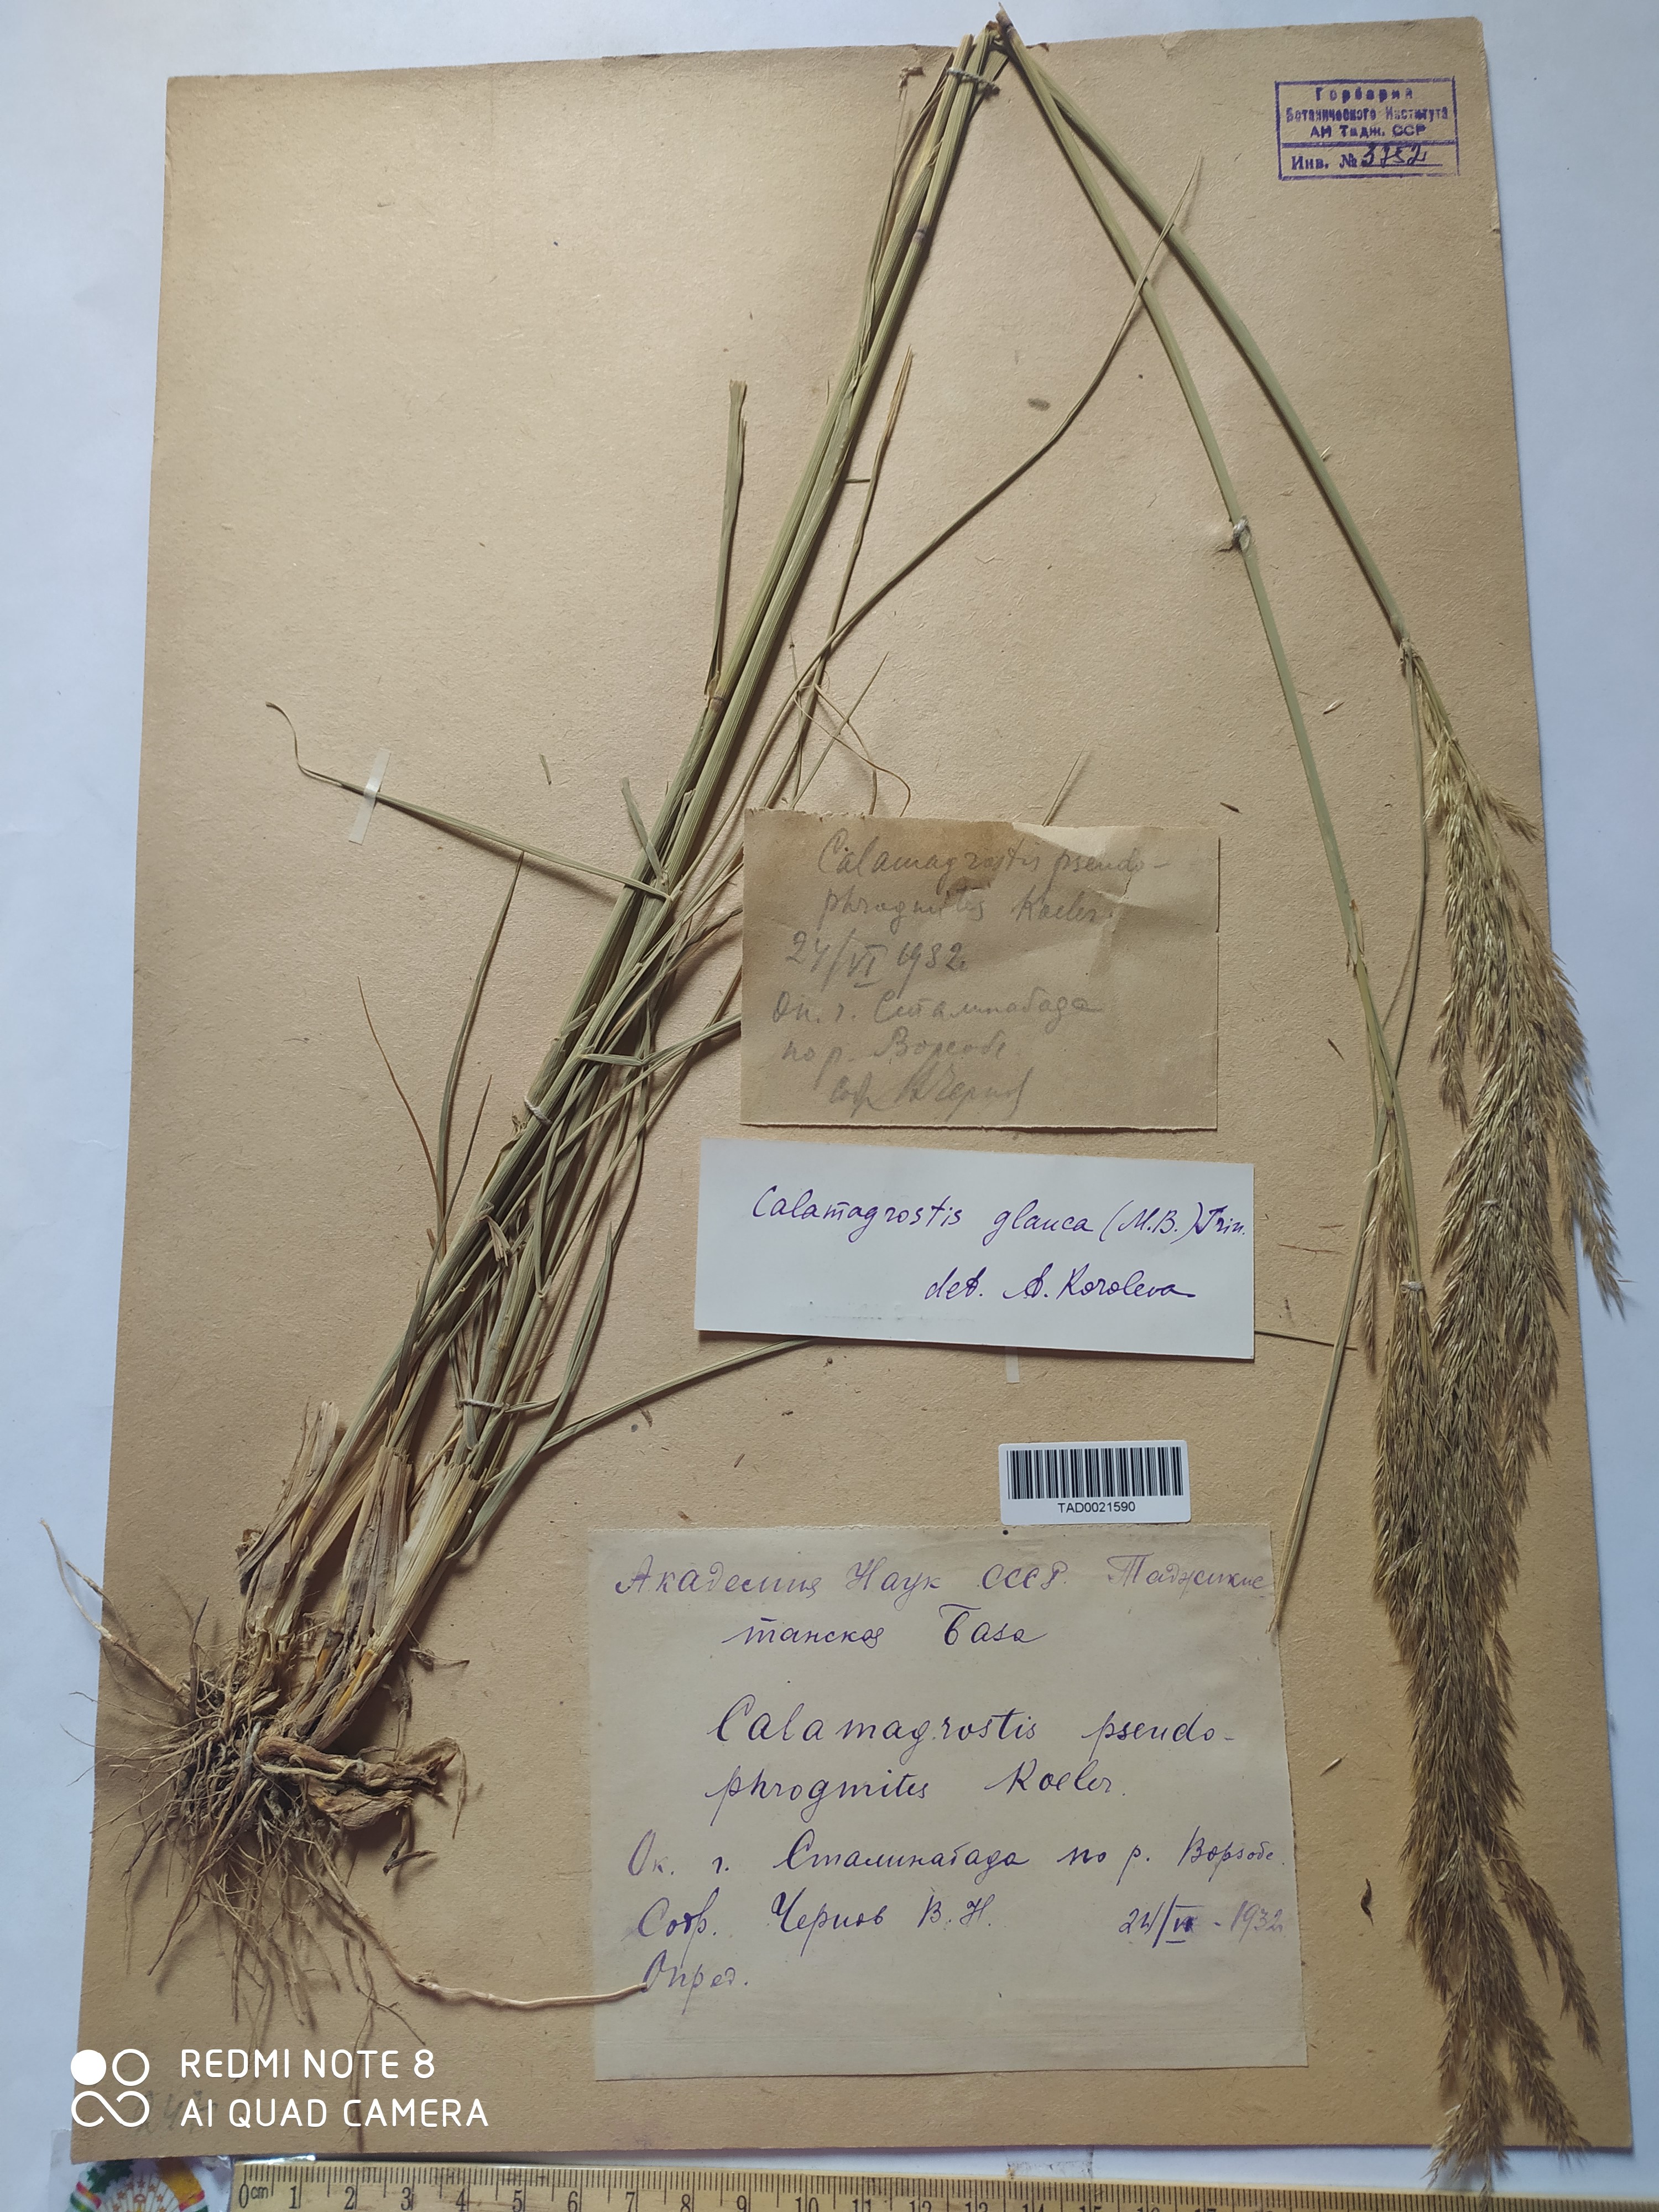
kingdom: Plantae
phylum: Tracheophyta
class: Liliopsida
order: Poales
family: Poaceae
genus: Calamagrostis
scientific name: Calamagrostis pseudophragmites
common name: Coastal small-reed
